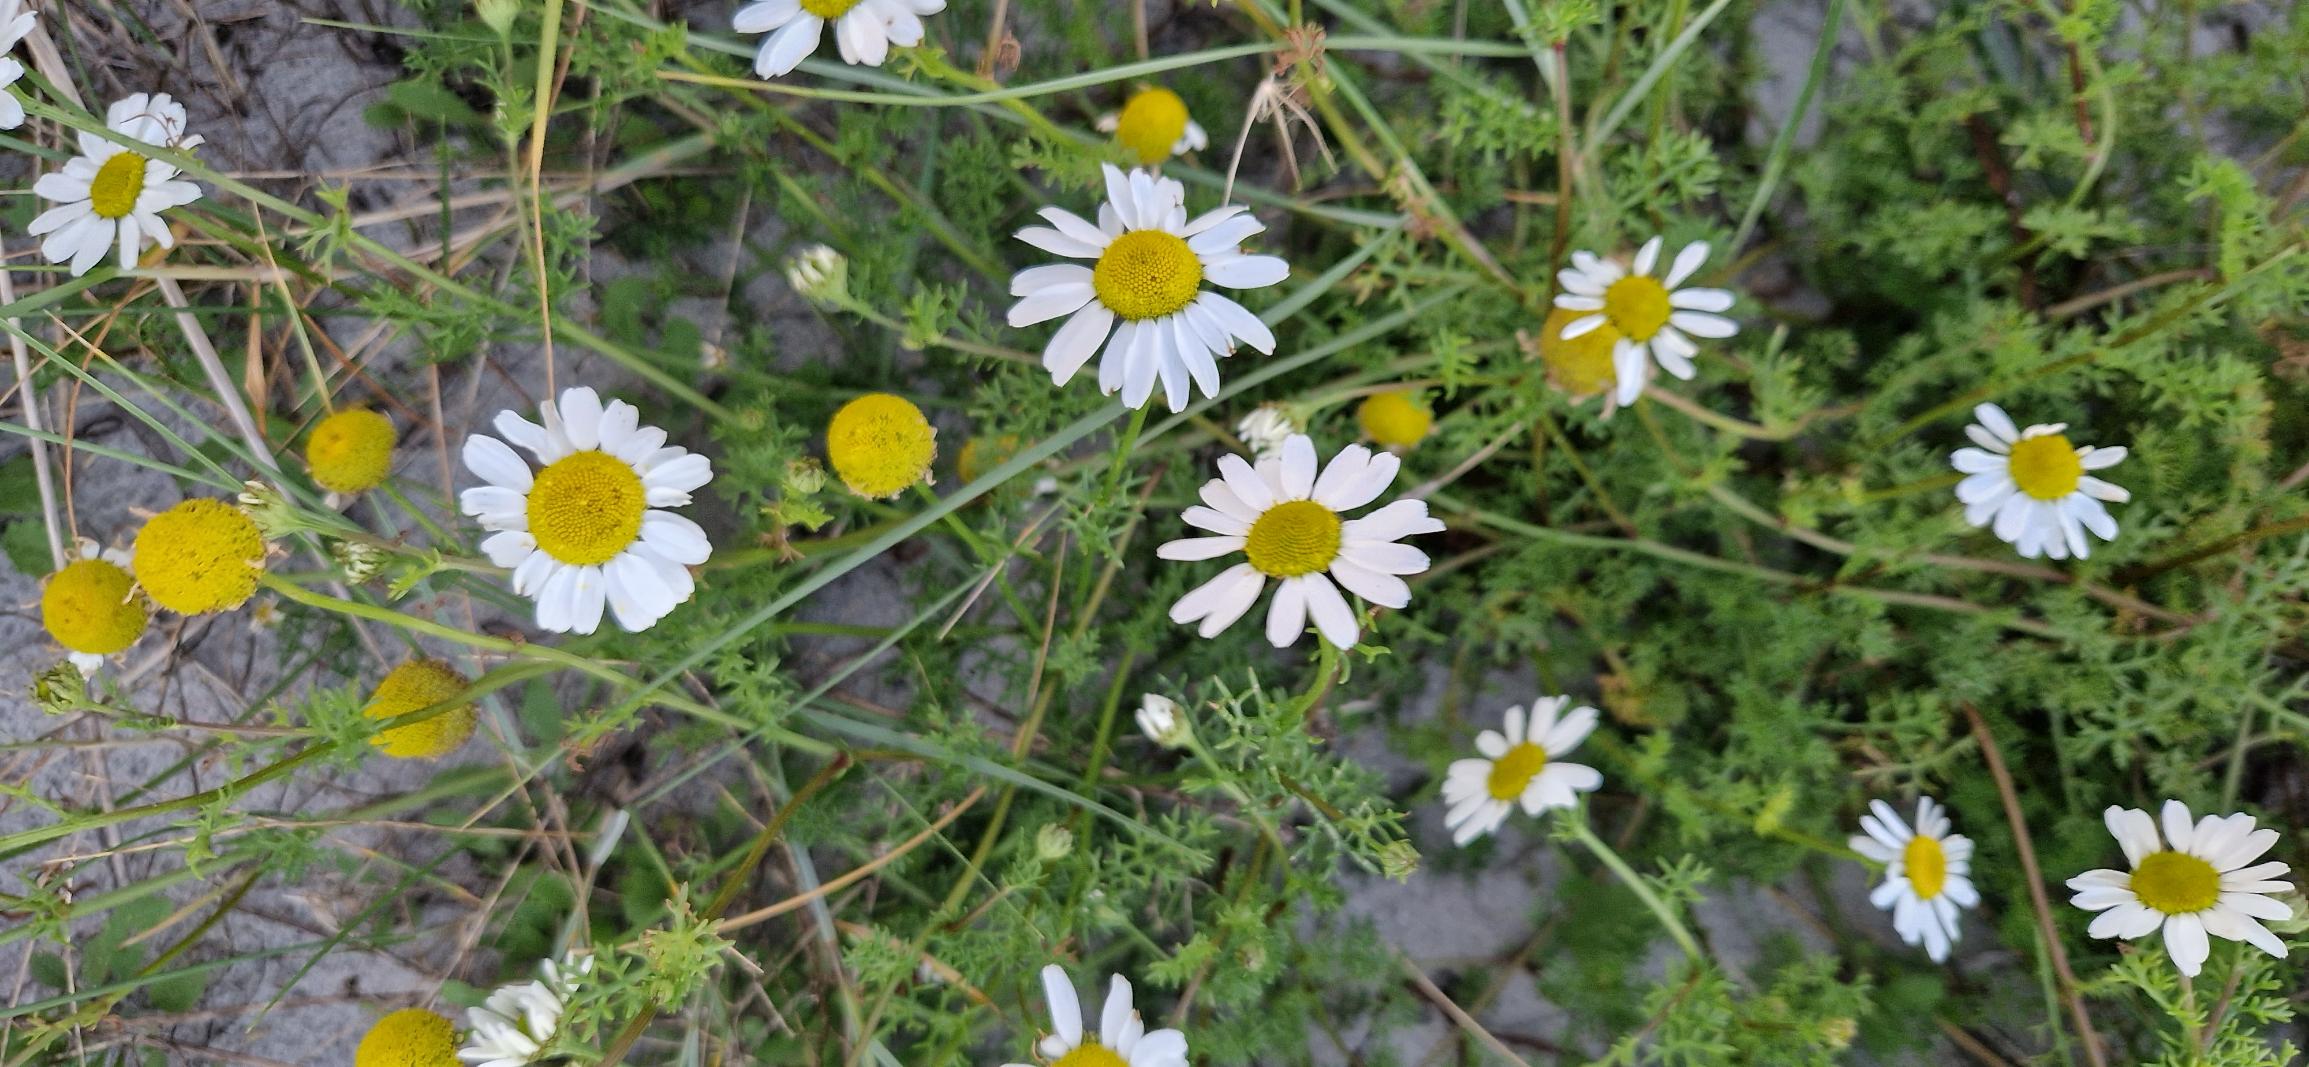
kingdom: Plantae
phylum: Tracheophyta
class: Magnoliopsida
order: Asterales
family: Asteraceae
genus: Tripleurospermum
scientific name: Tripleurospermum maritimum
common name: Strand-kamille
